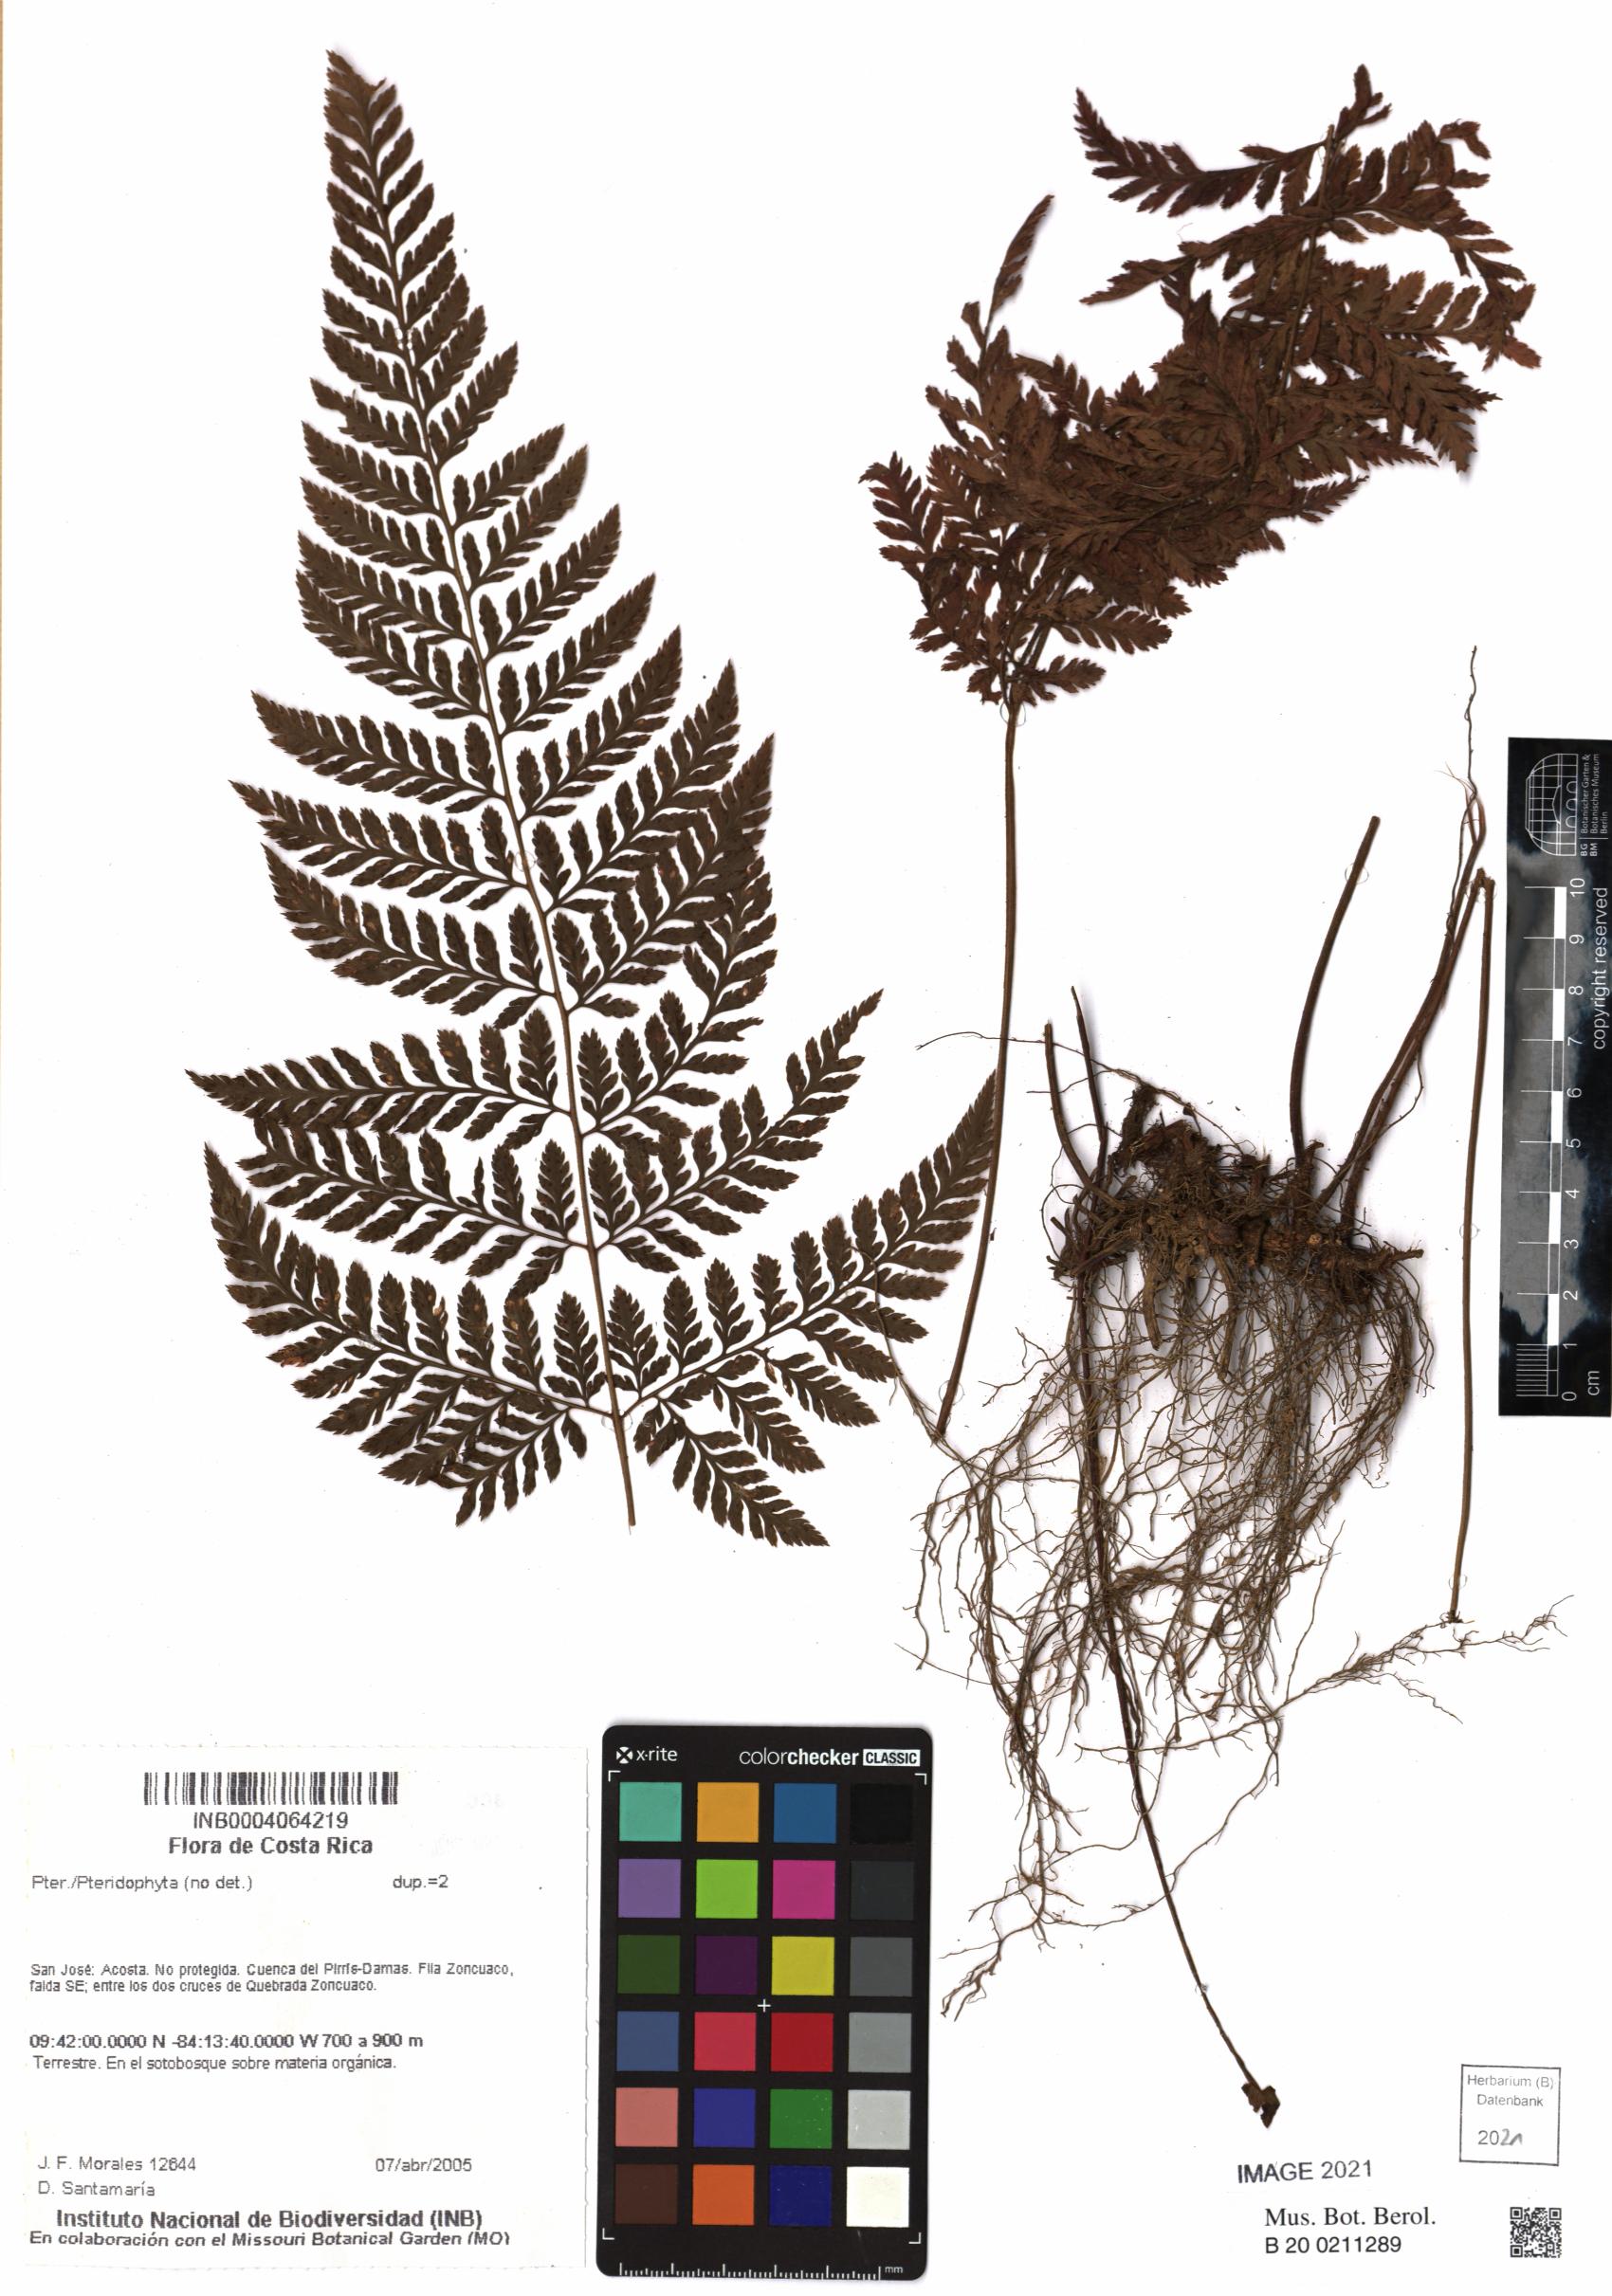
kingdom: Plantae
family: Pteridophyta
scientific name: Pteridophyta
